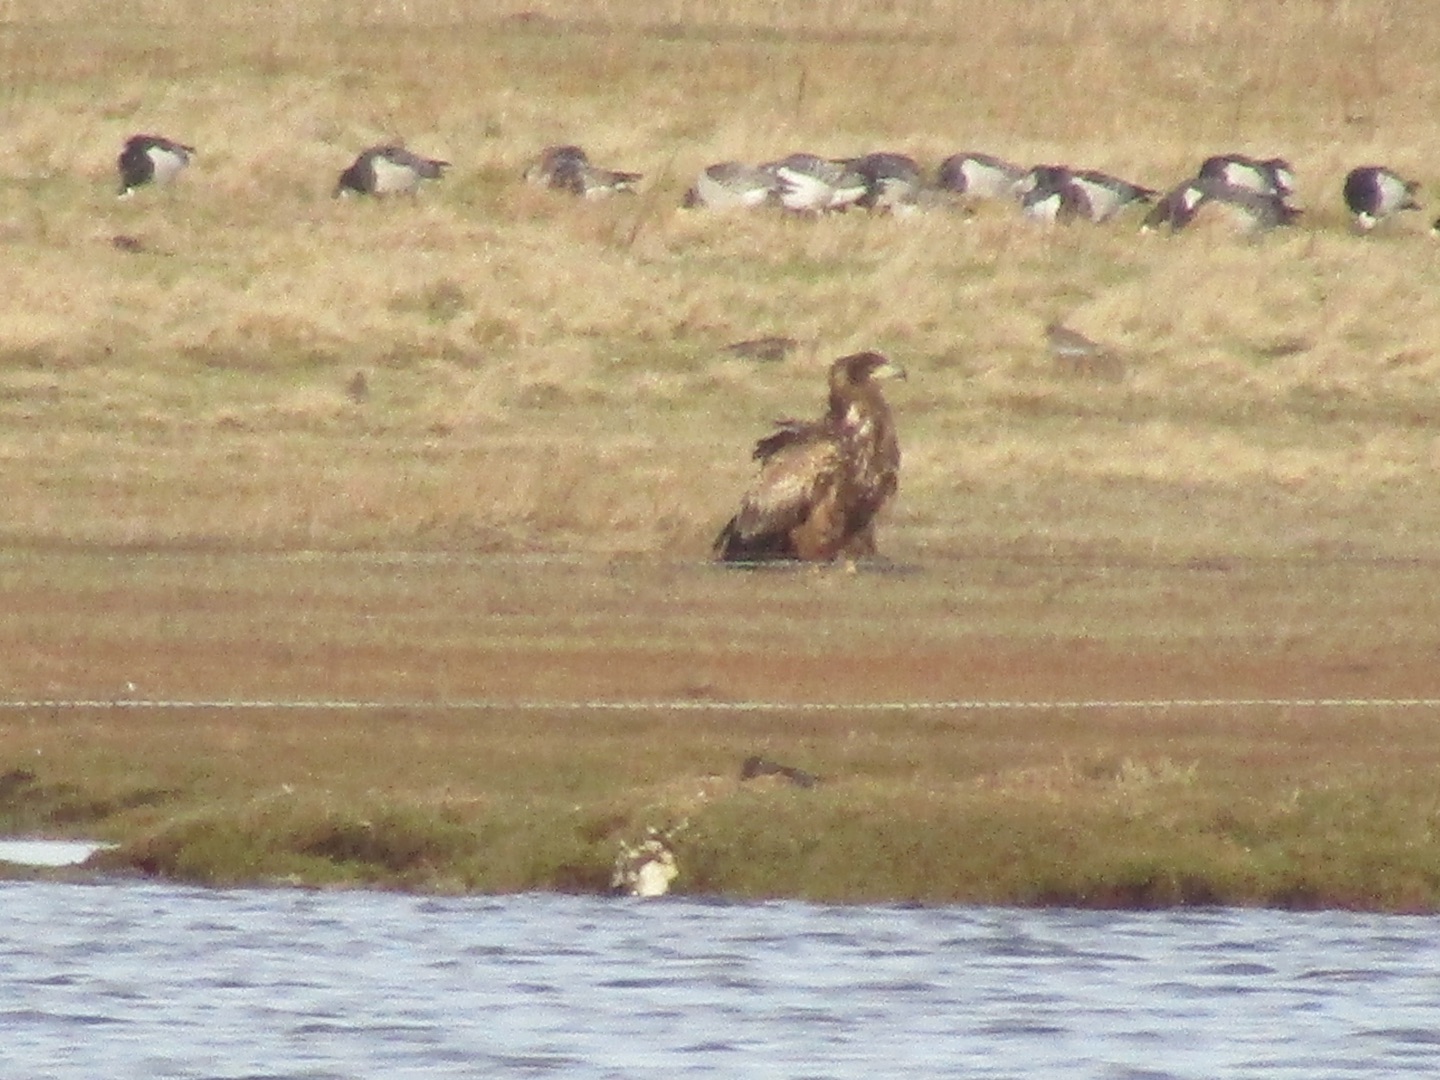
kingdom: Animalia
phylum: Chordata
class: Aves
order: Accipitriformes
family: Accipitridae
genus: Haliaeetus
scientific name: Haliaeetus albicilla
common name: Havørn
